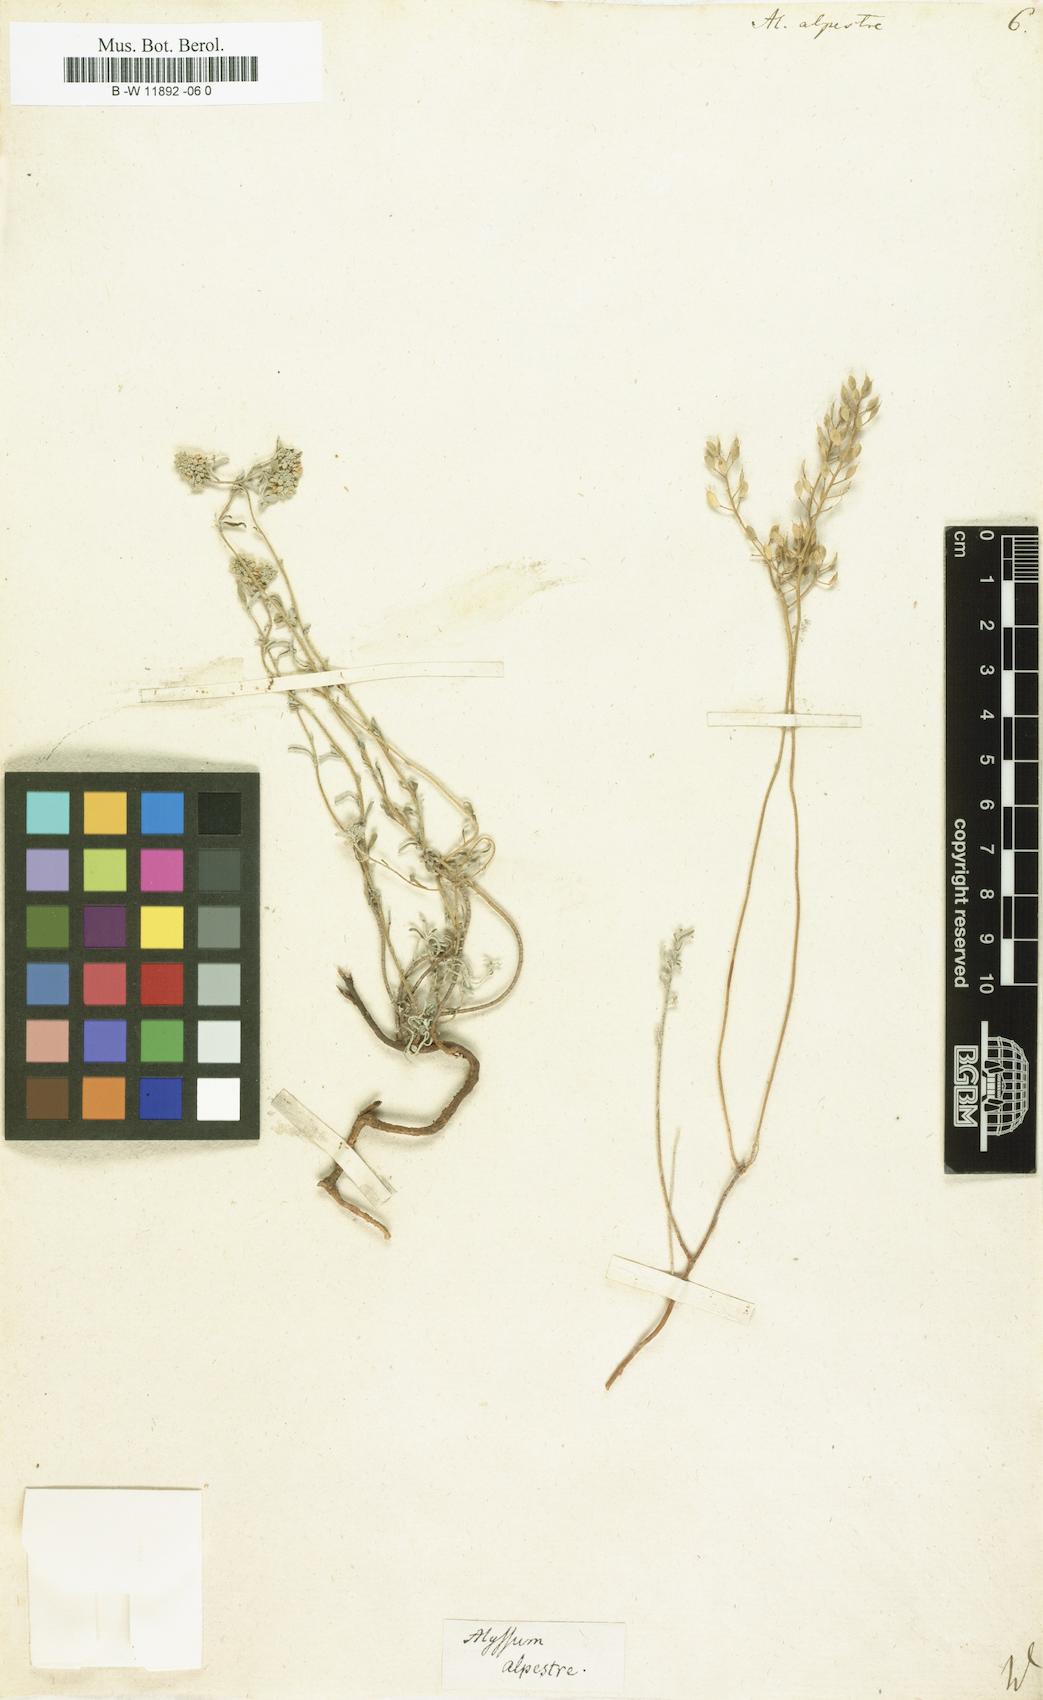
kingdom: Plantae
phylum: Tracheophyta
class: Magnoliopsida
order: Brassicales
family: Brassicaceae
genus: Odontarrhena
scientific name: Odontarrhena alpestris
